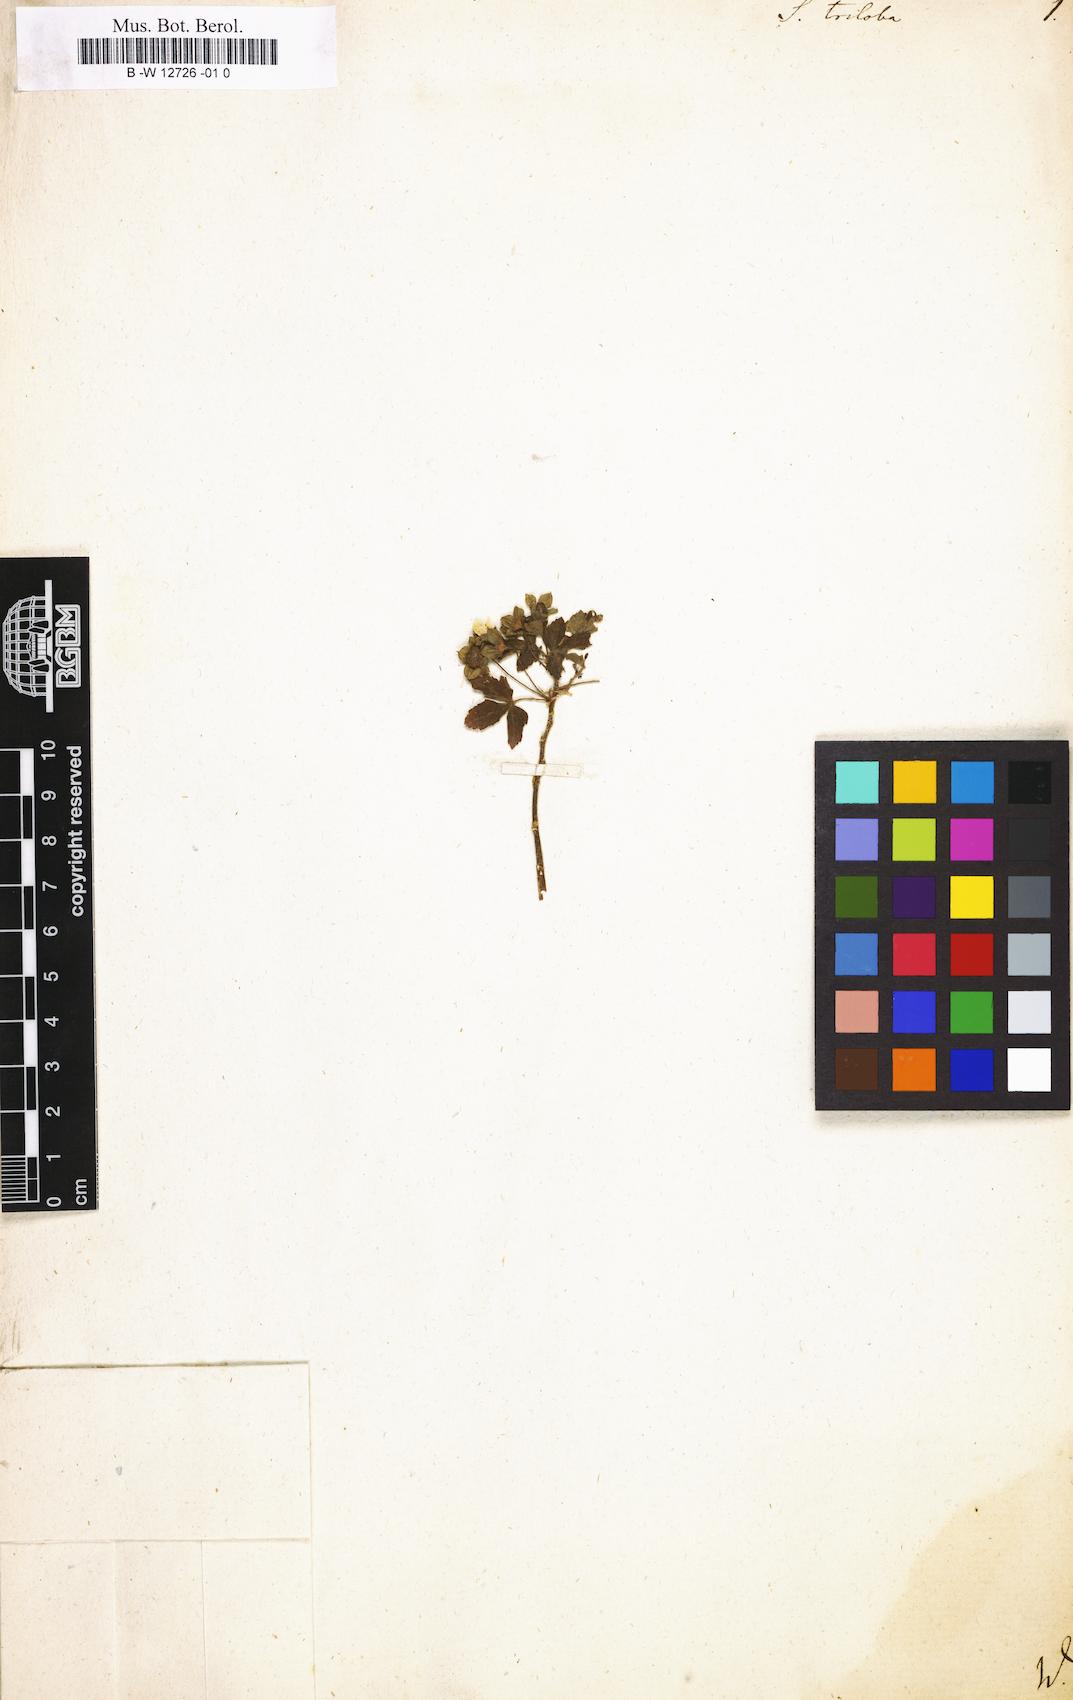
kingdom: Plantae
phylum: Tracheophyta
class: Magnoliopsida
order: Malvales
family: Malvaceae
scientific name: Malvaceae
